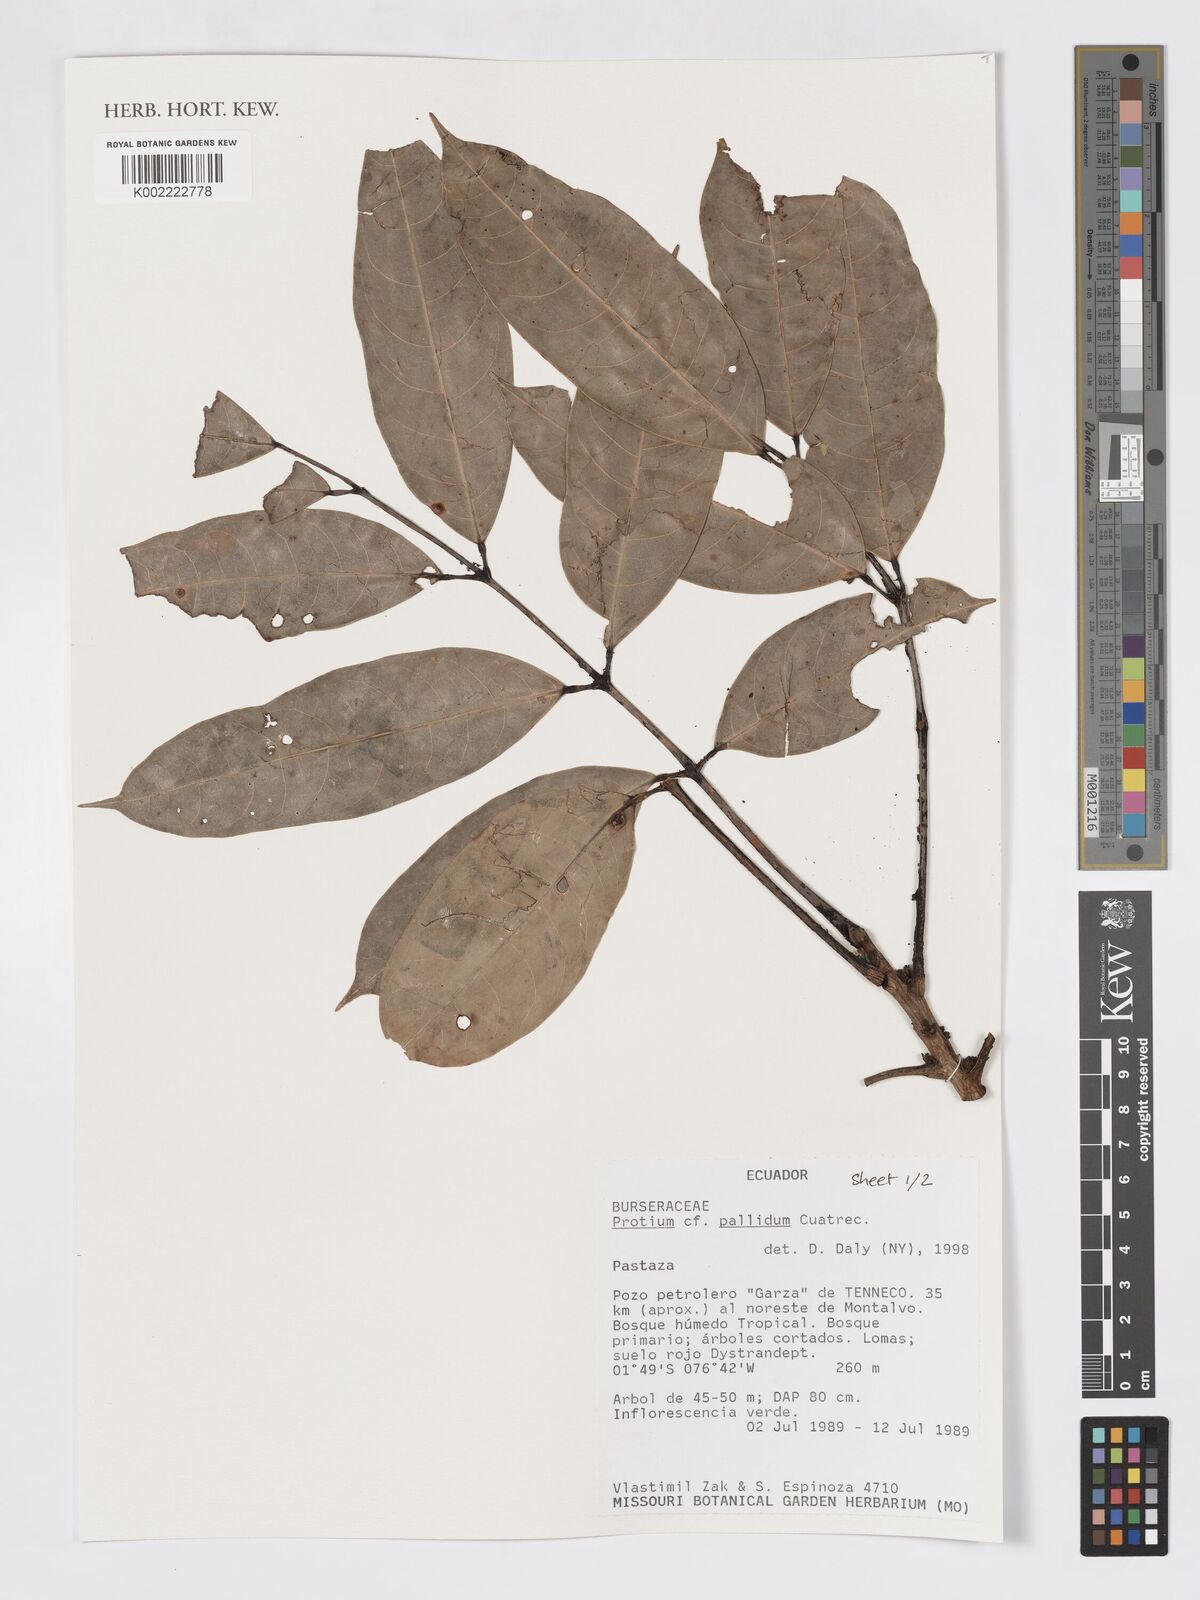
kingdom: Plantae
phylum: Tracheophyta
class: Magnoliopsida
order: Sapindales
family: Burseraceae
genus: Protium
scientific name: Protium pallidum
